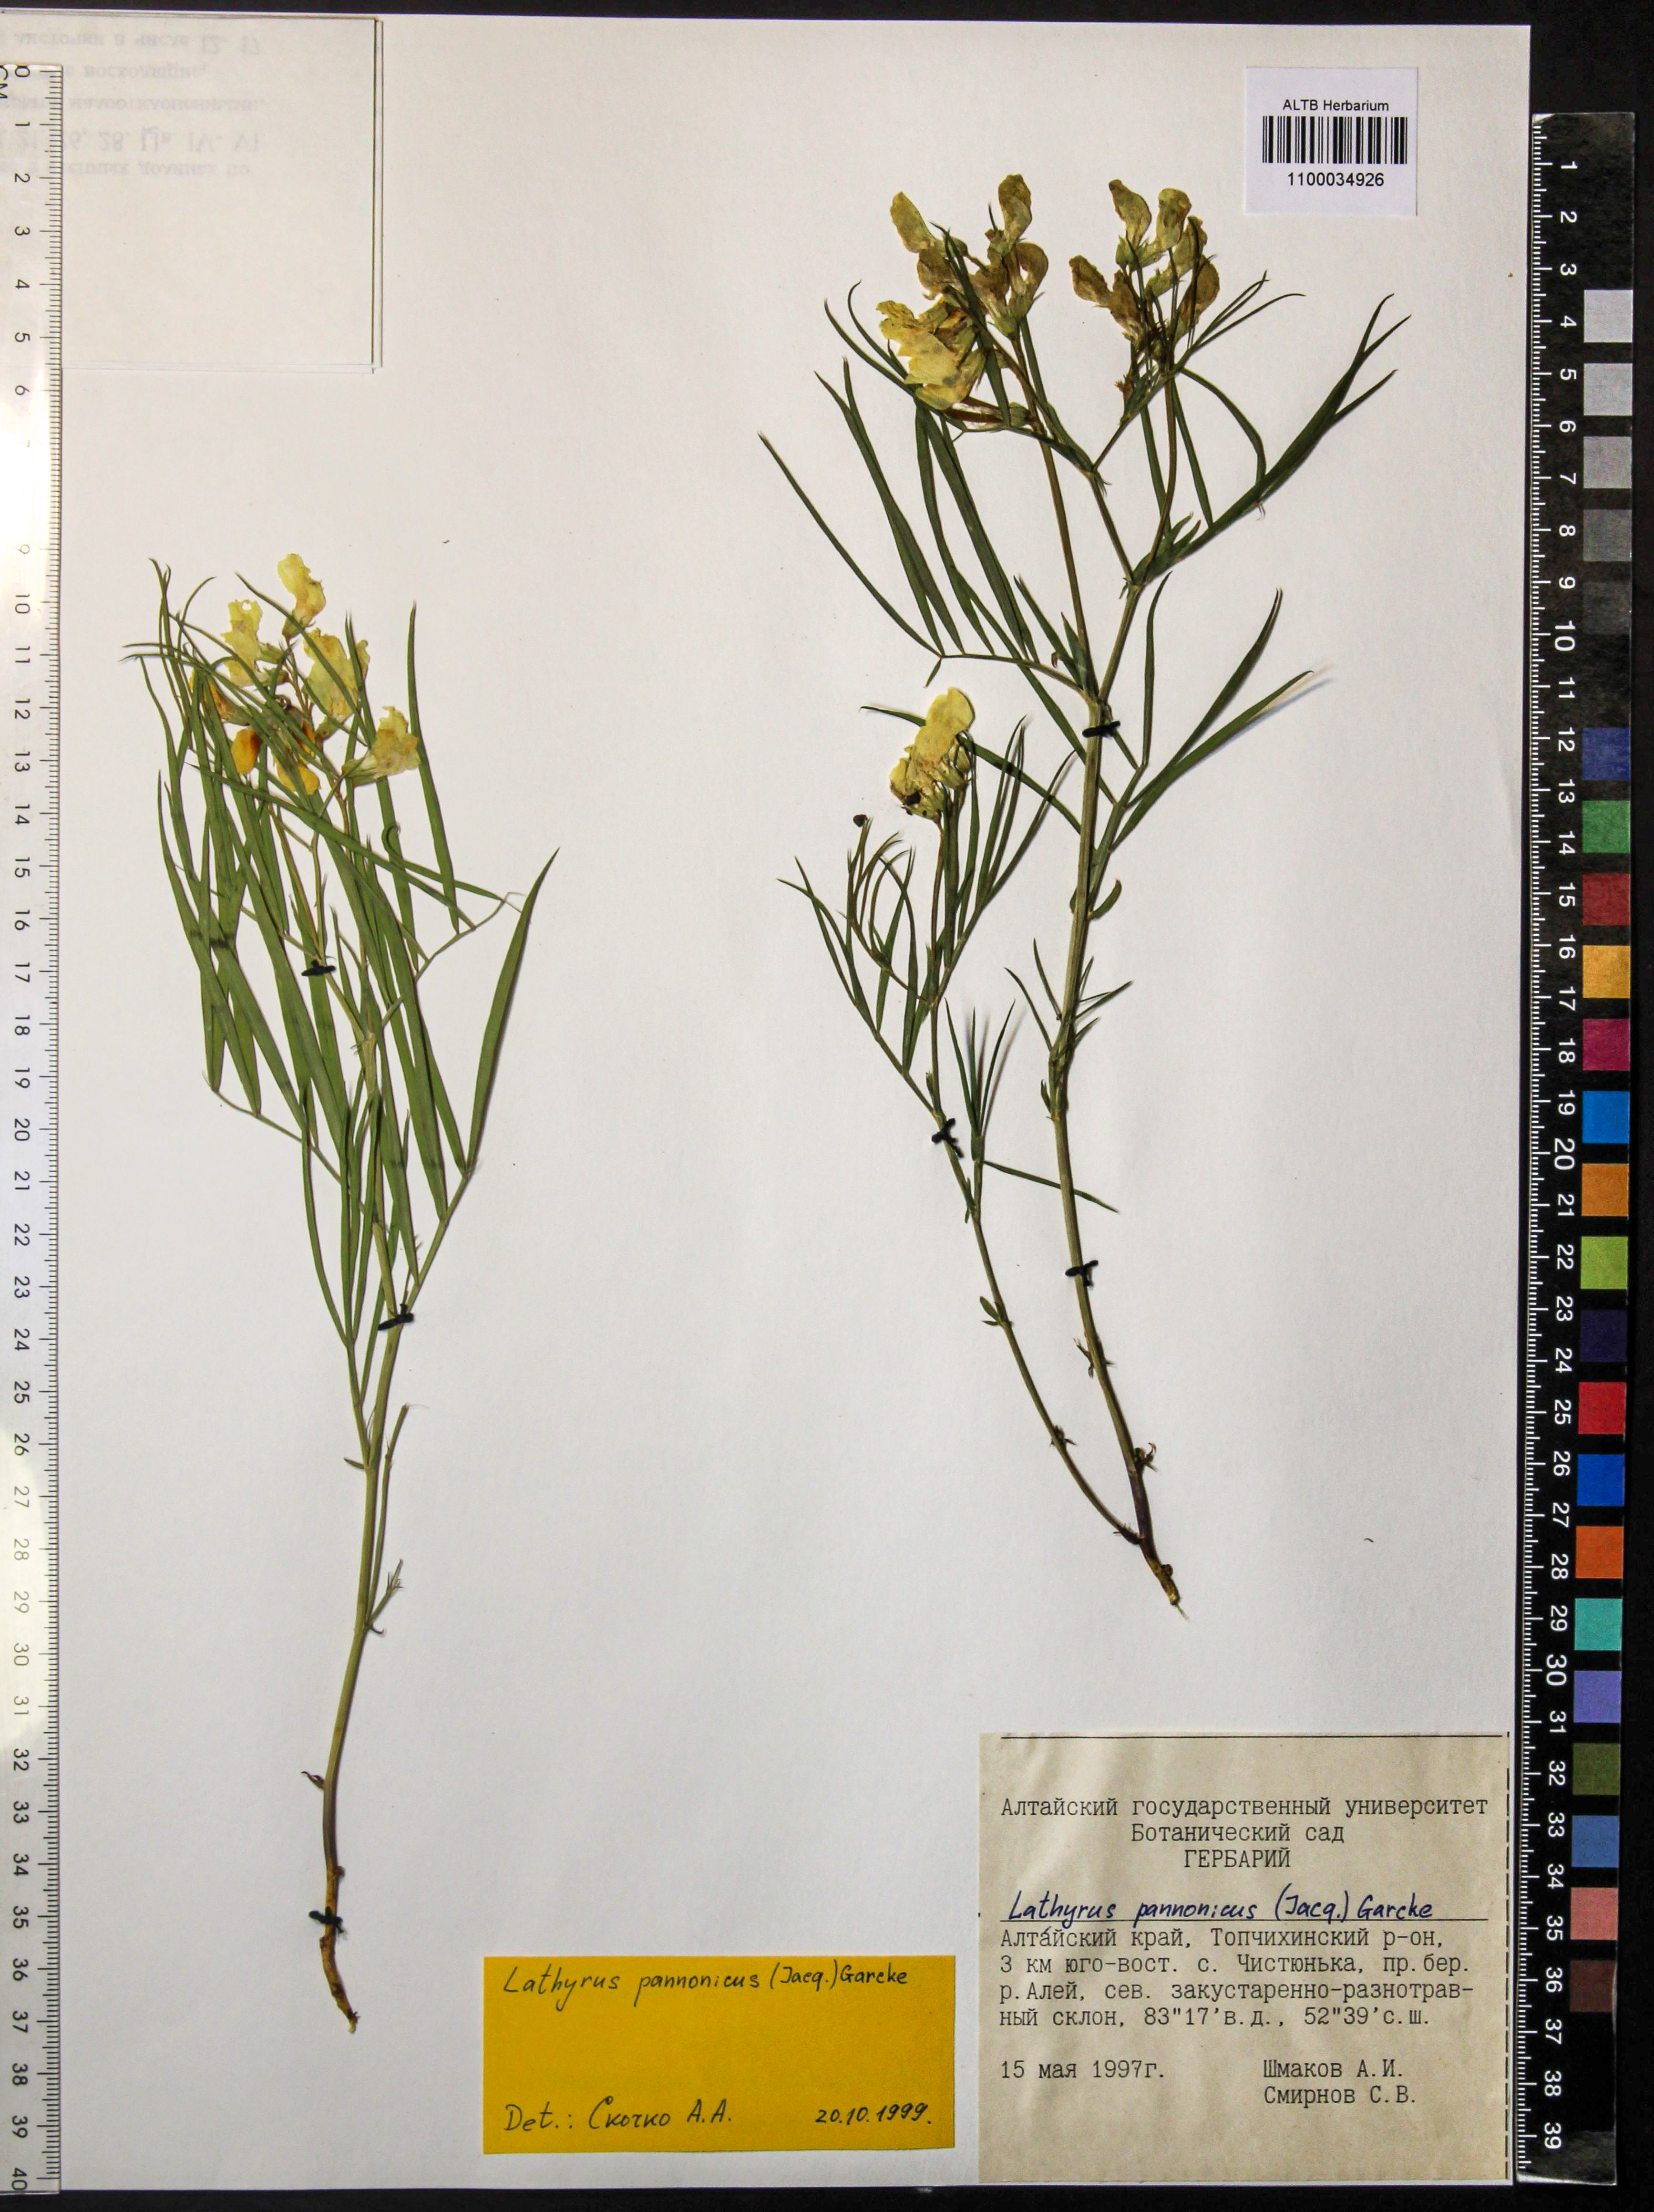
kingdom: Plantae
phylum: Tracheophyta
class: Magnoliopsida
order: Fabales
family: Fabaceae
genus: Lathyrus
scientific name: Lathyrus pannonicus
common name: Pea
